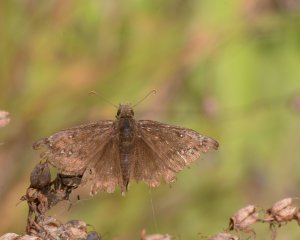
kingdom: Animalia
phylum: Arthropoda
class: Insecta
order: Lepidoptera
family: Hesperiidae
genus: Gesta
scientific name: Gesta
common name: Juvenal's Duskywing
